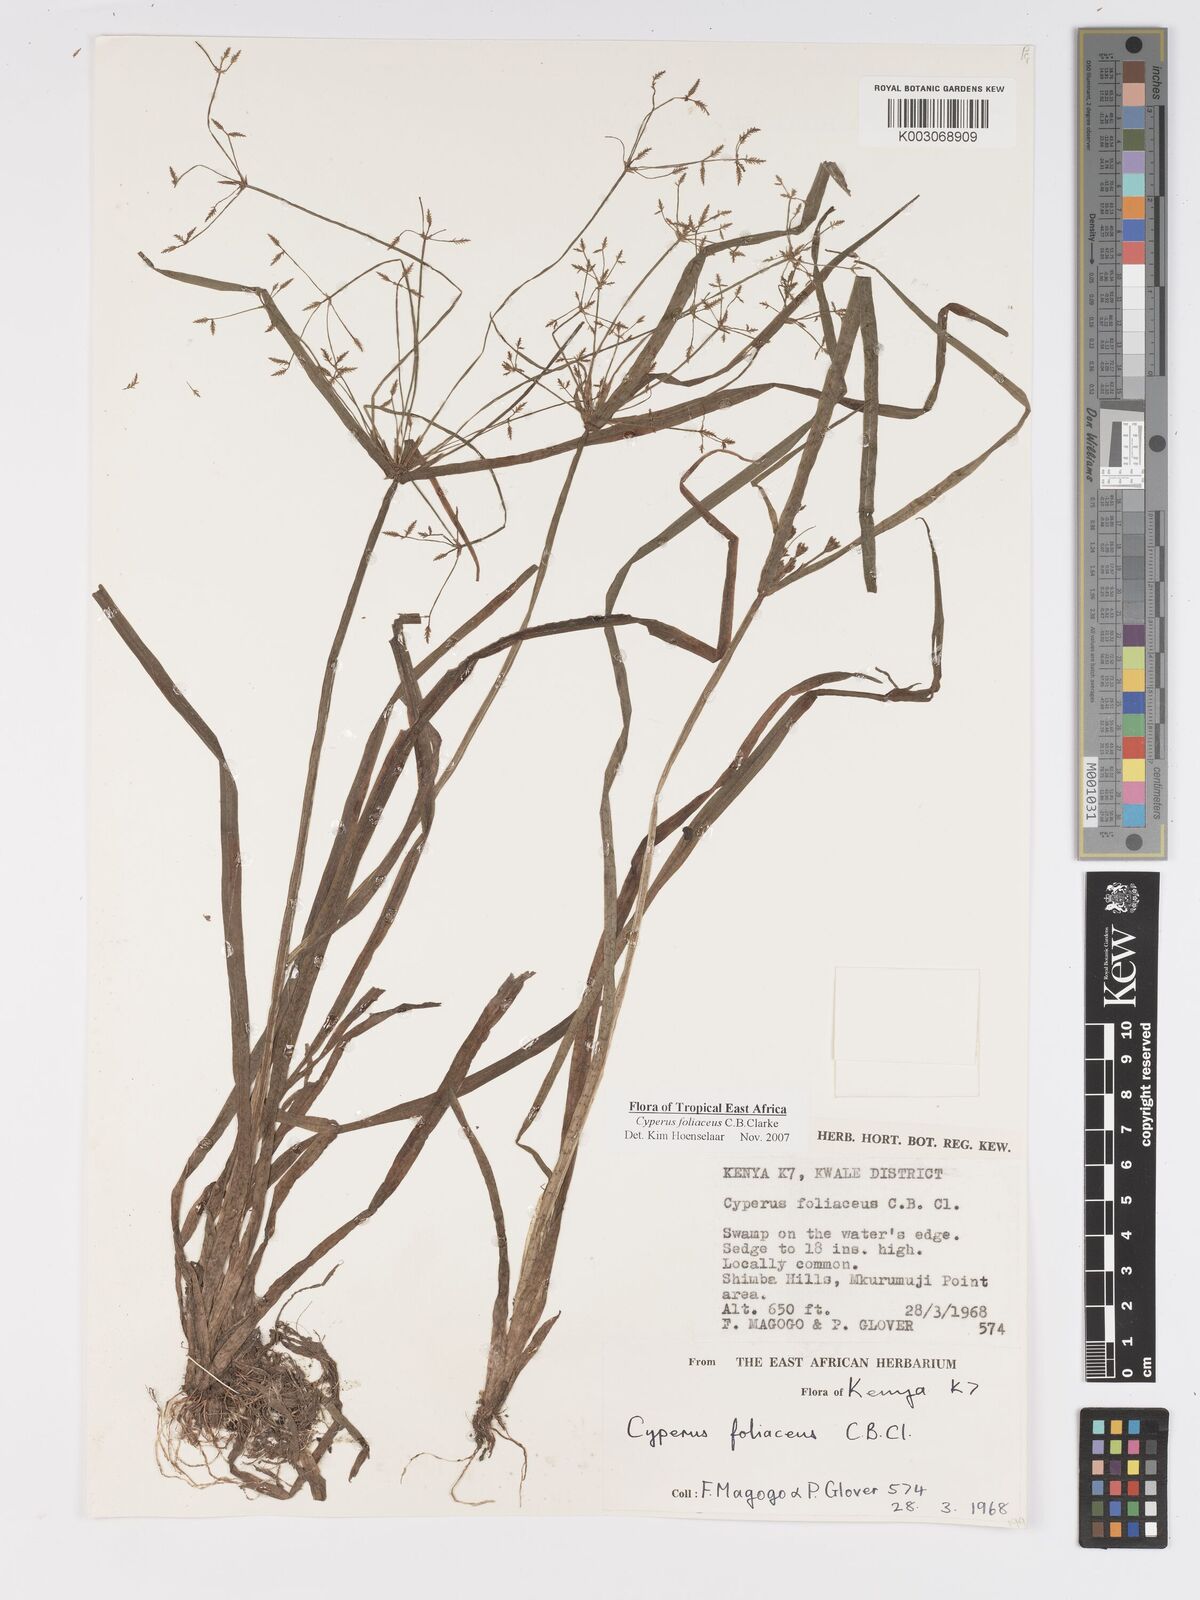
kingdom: Plantae
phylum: Tracheophyta
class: Liliopsida
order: Poales
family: Cyperaceae
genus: Cyperus
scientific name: Cyperus foliaceus
